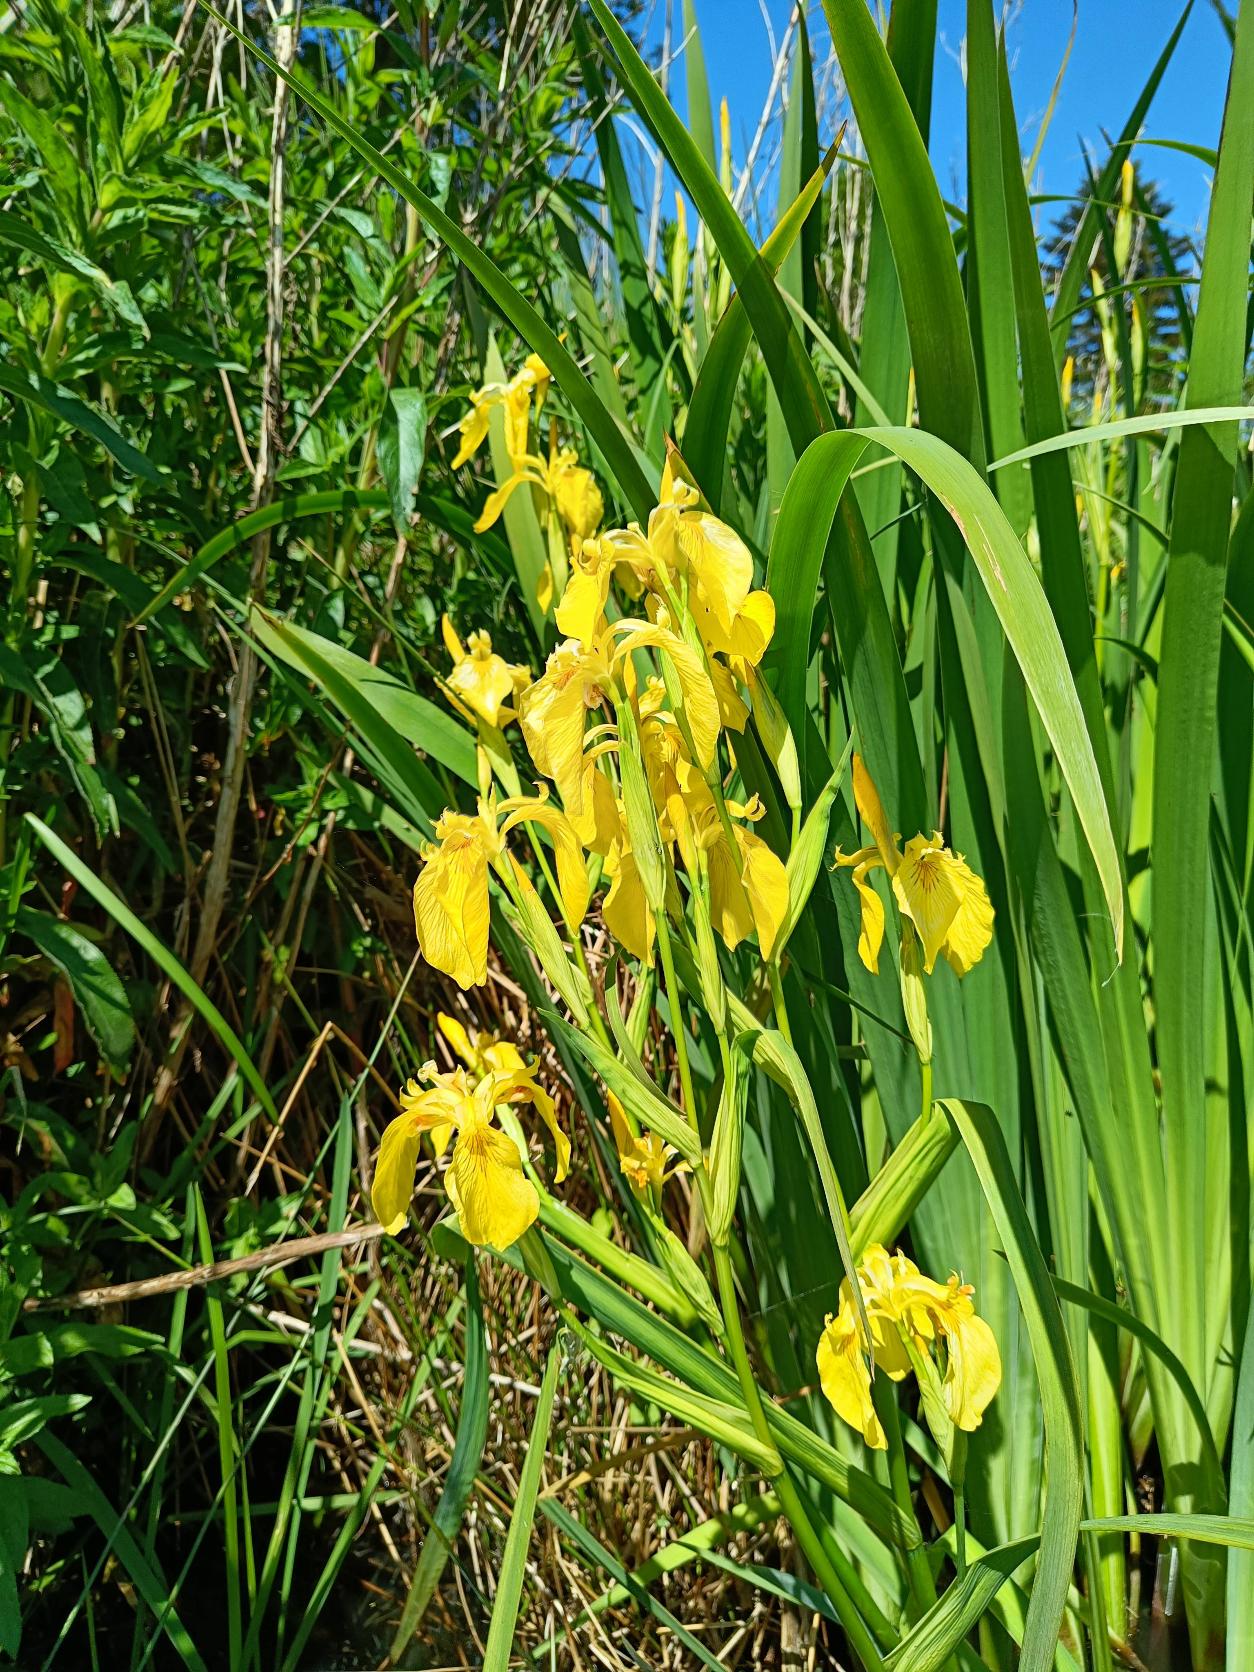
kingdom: Plantae
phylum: Tracheophyta
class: Liliopsida
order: Asparagales
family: Iridaceae
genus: Iris
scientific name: Iris pseudacorus
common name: Gul iris
